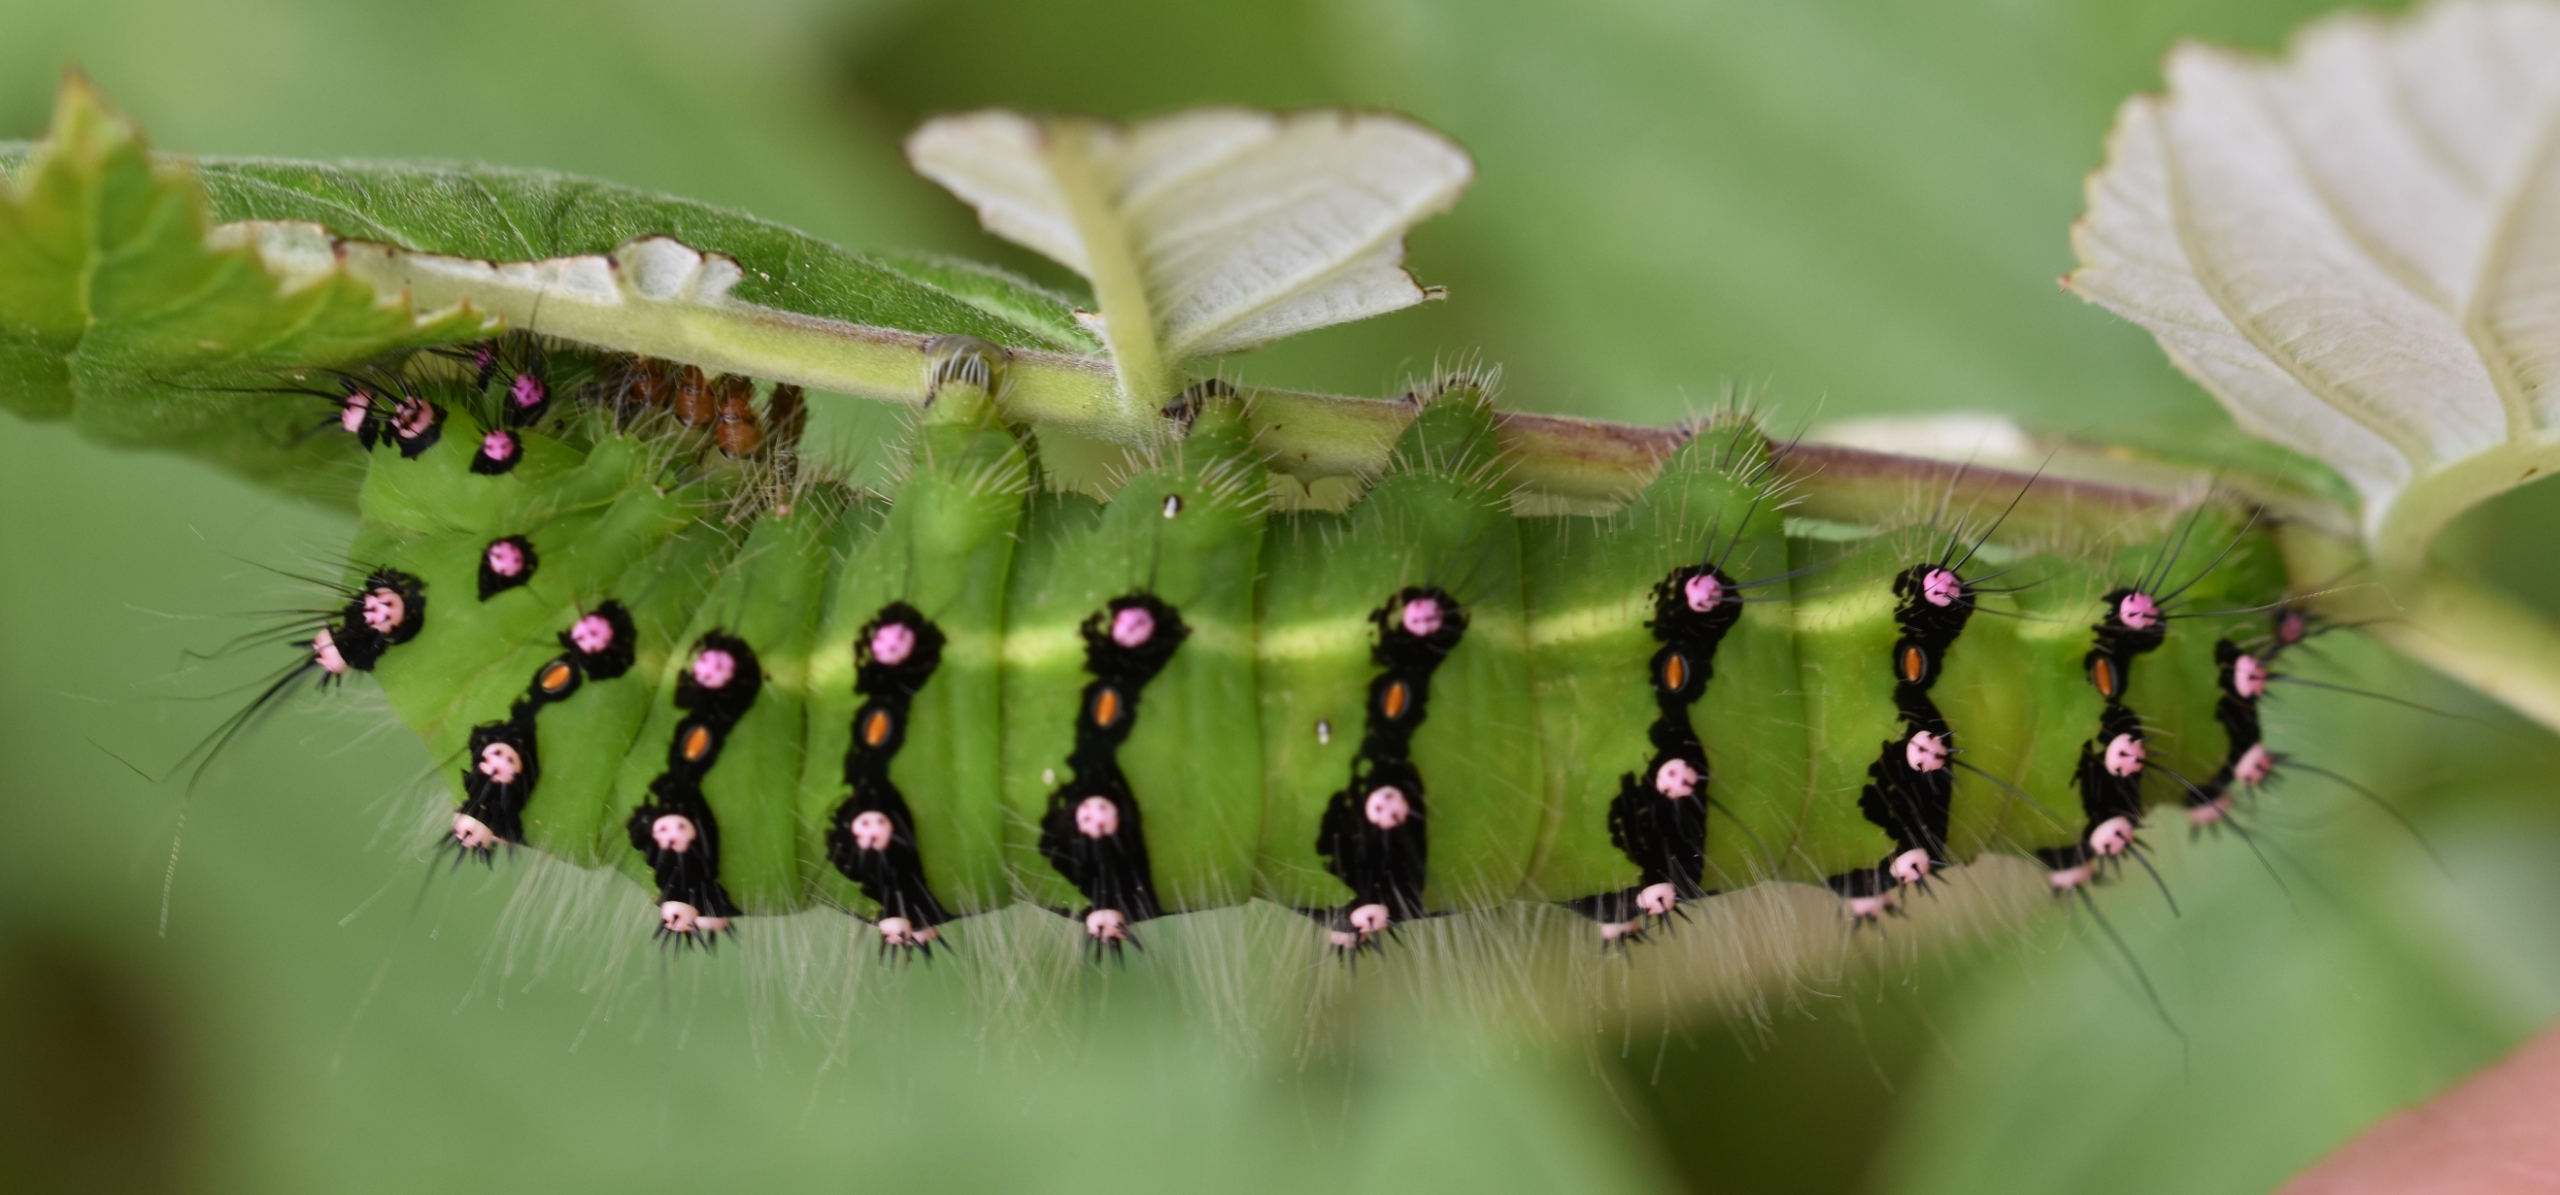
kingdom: Animalia
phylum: Arthropoda
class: Insecta
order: Lepidoptera
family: Saturniidae
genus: Saturnia
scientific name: Saturnia pavonia
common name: Lille natpåfugleøje
